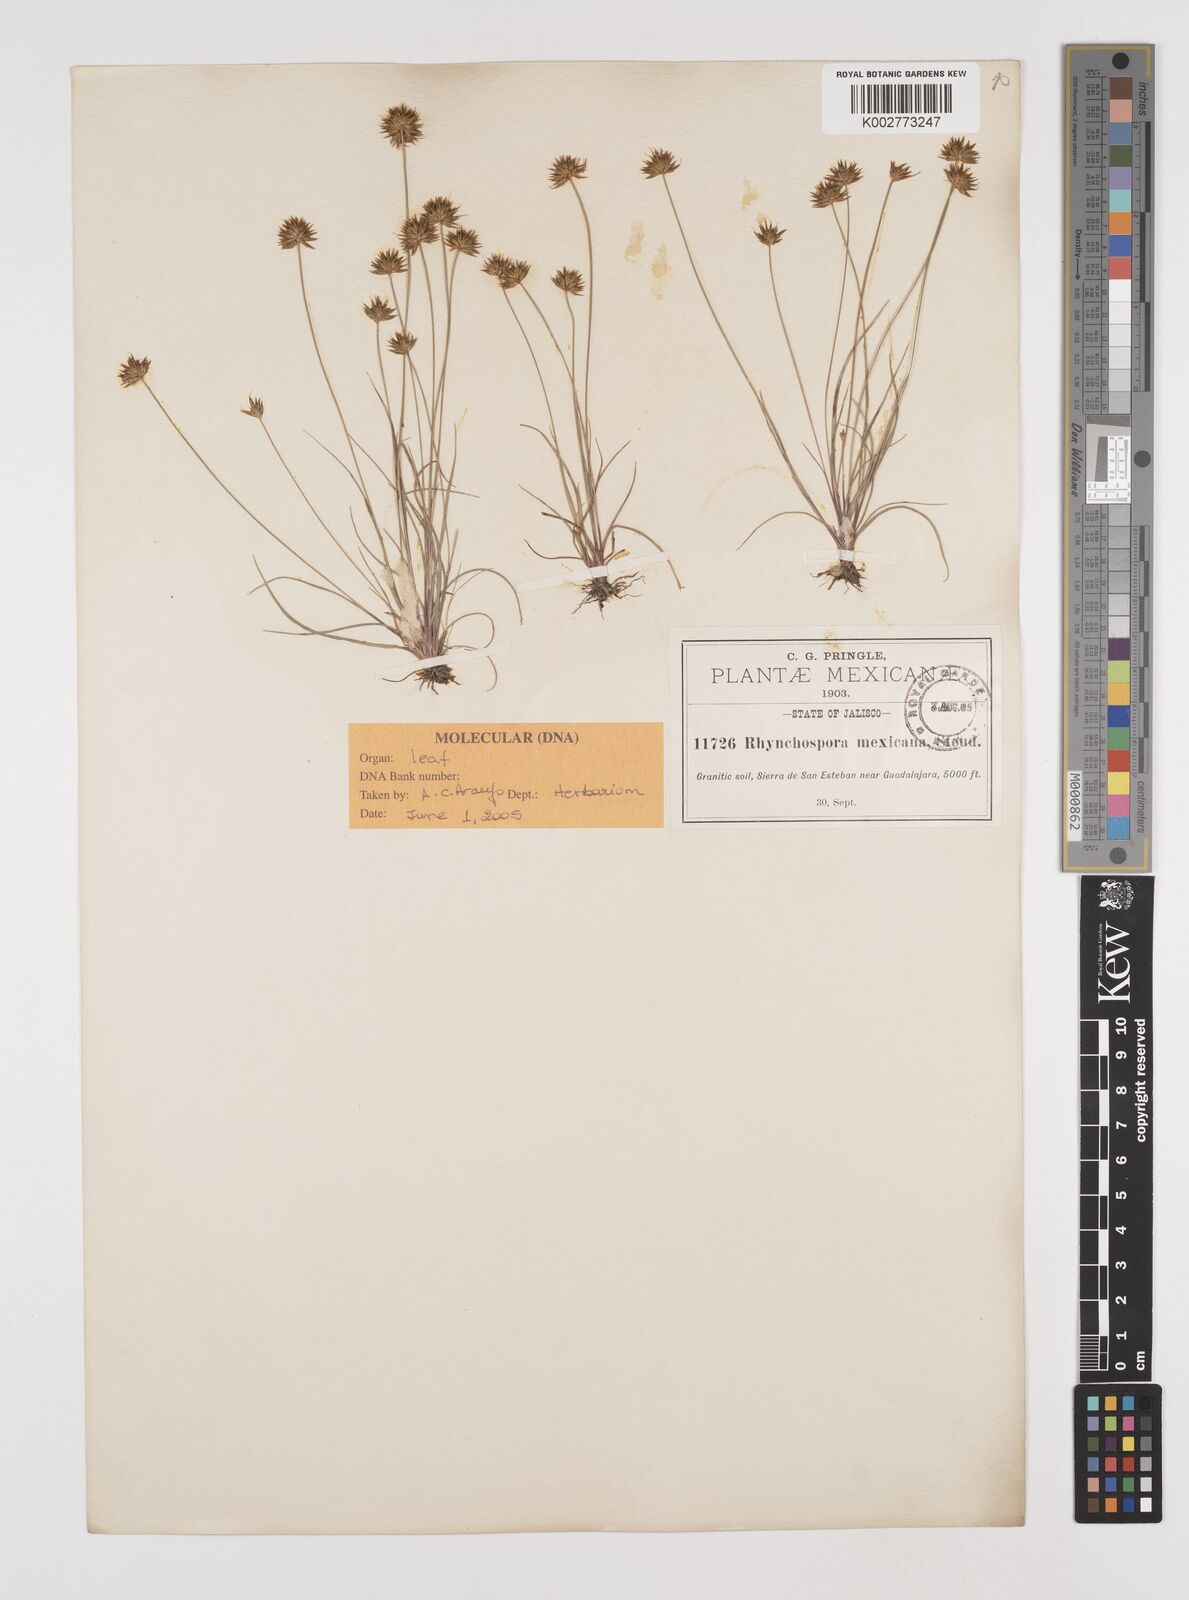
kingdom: Plantae
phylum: Tracheophyta
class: Liliopsida
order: Poales
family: Cyperaceae
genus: Rhynchospora
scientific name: Rhynchospora mexicana
